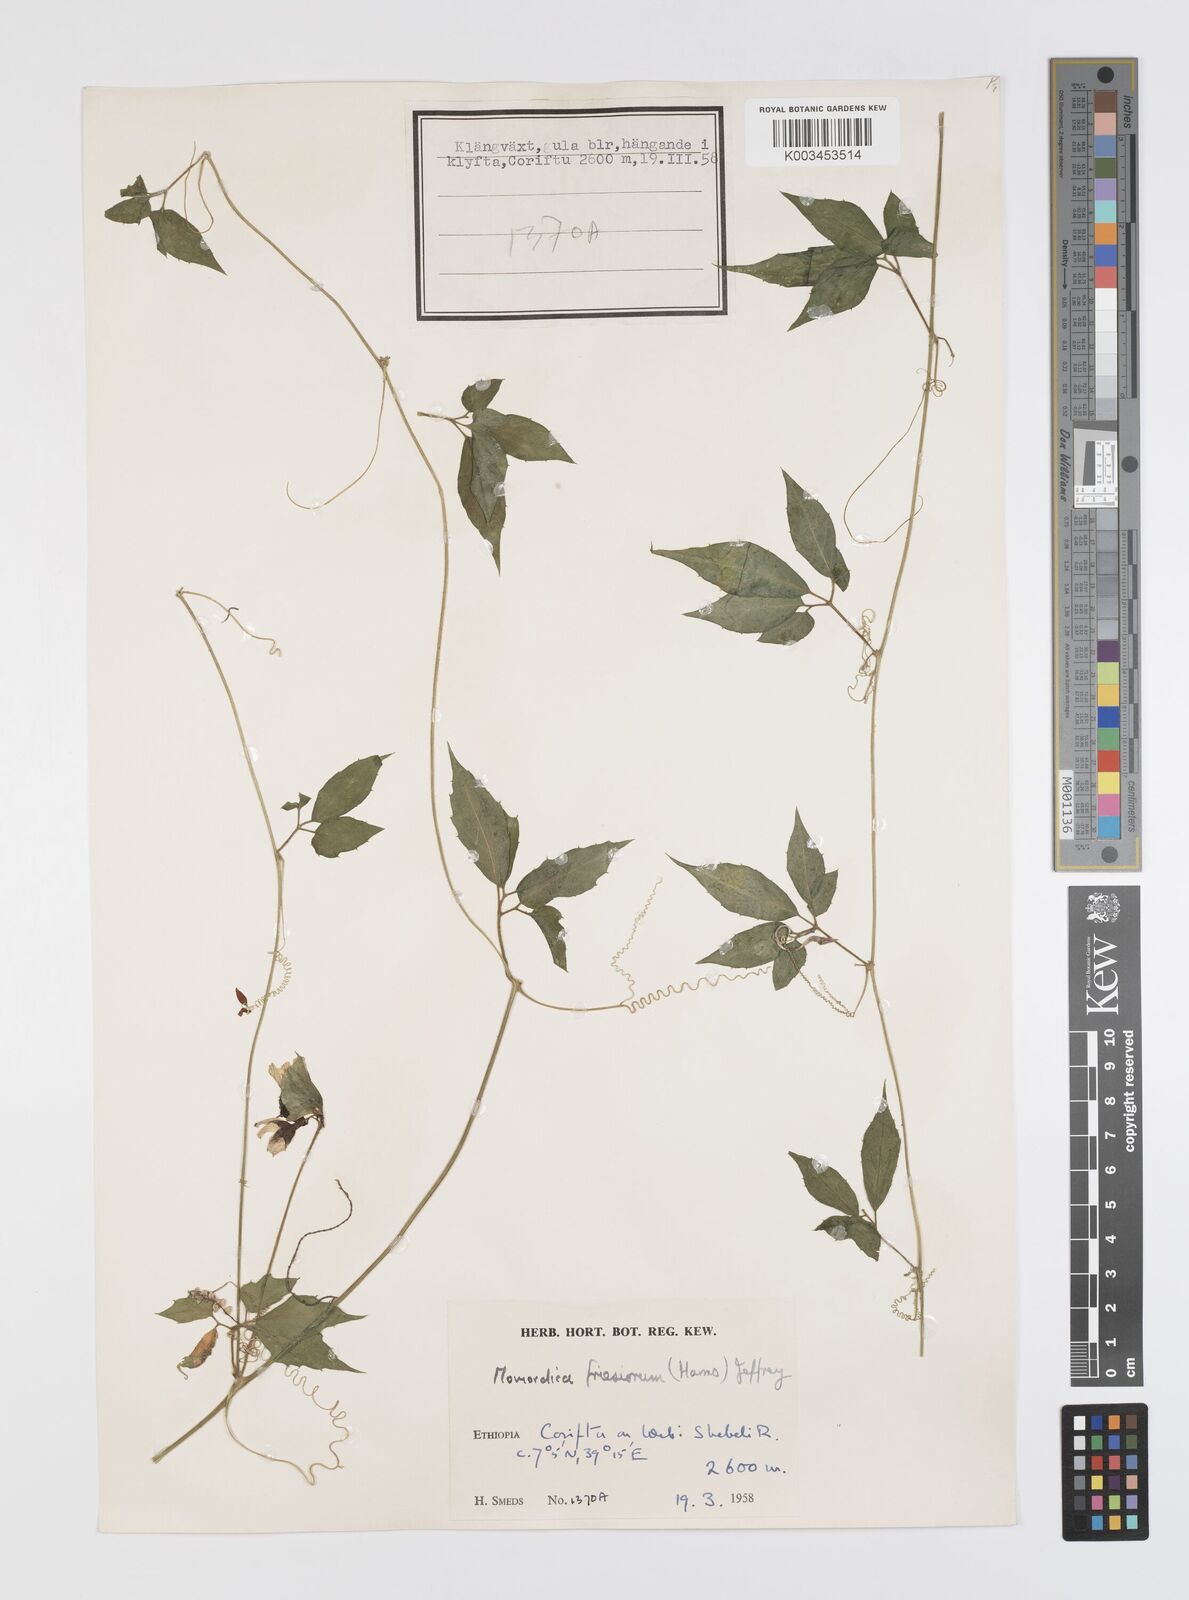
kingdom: Plantae
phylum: Tracheophyta
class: Magnoliopsida
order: Cucurbitales
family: Cucurbitaceae
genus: Momordica
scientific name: Momordica friesiorum
